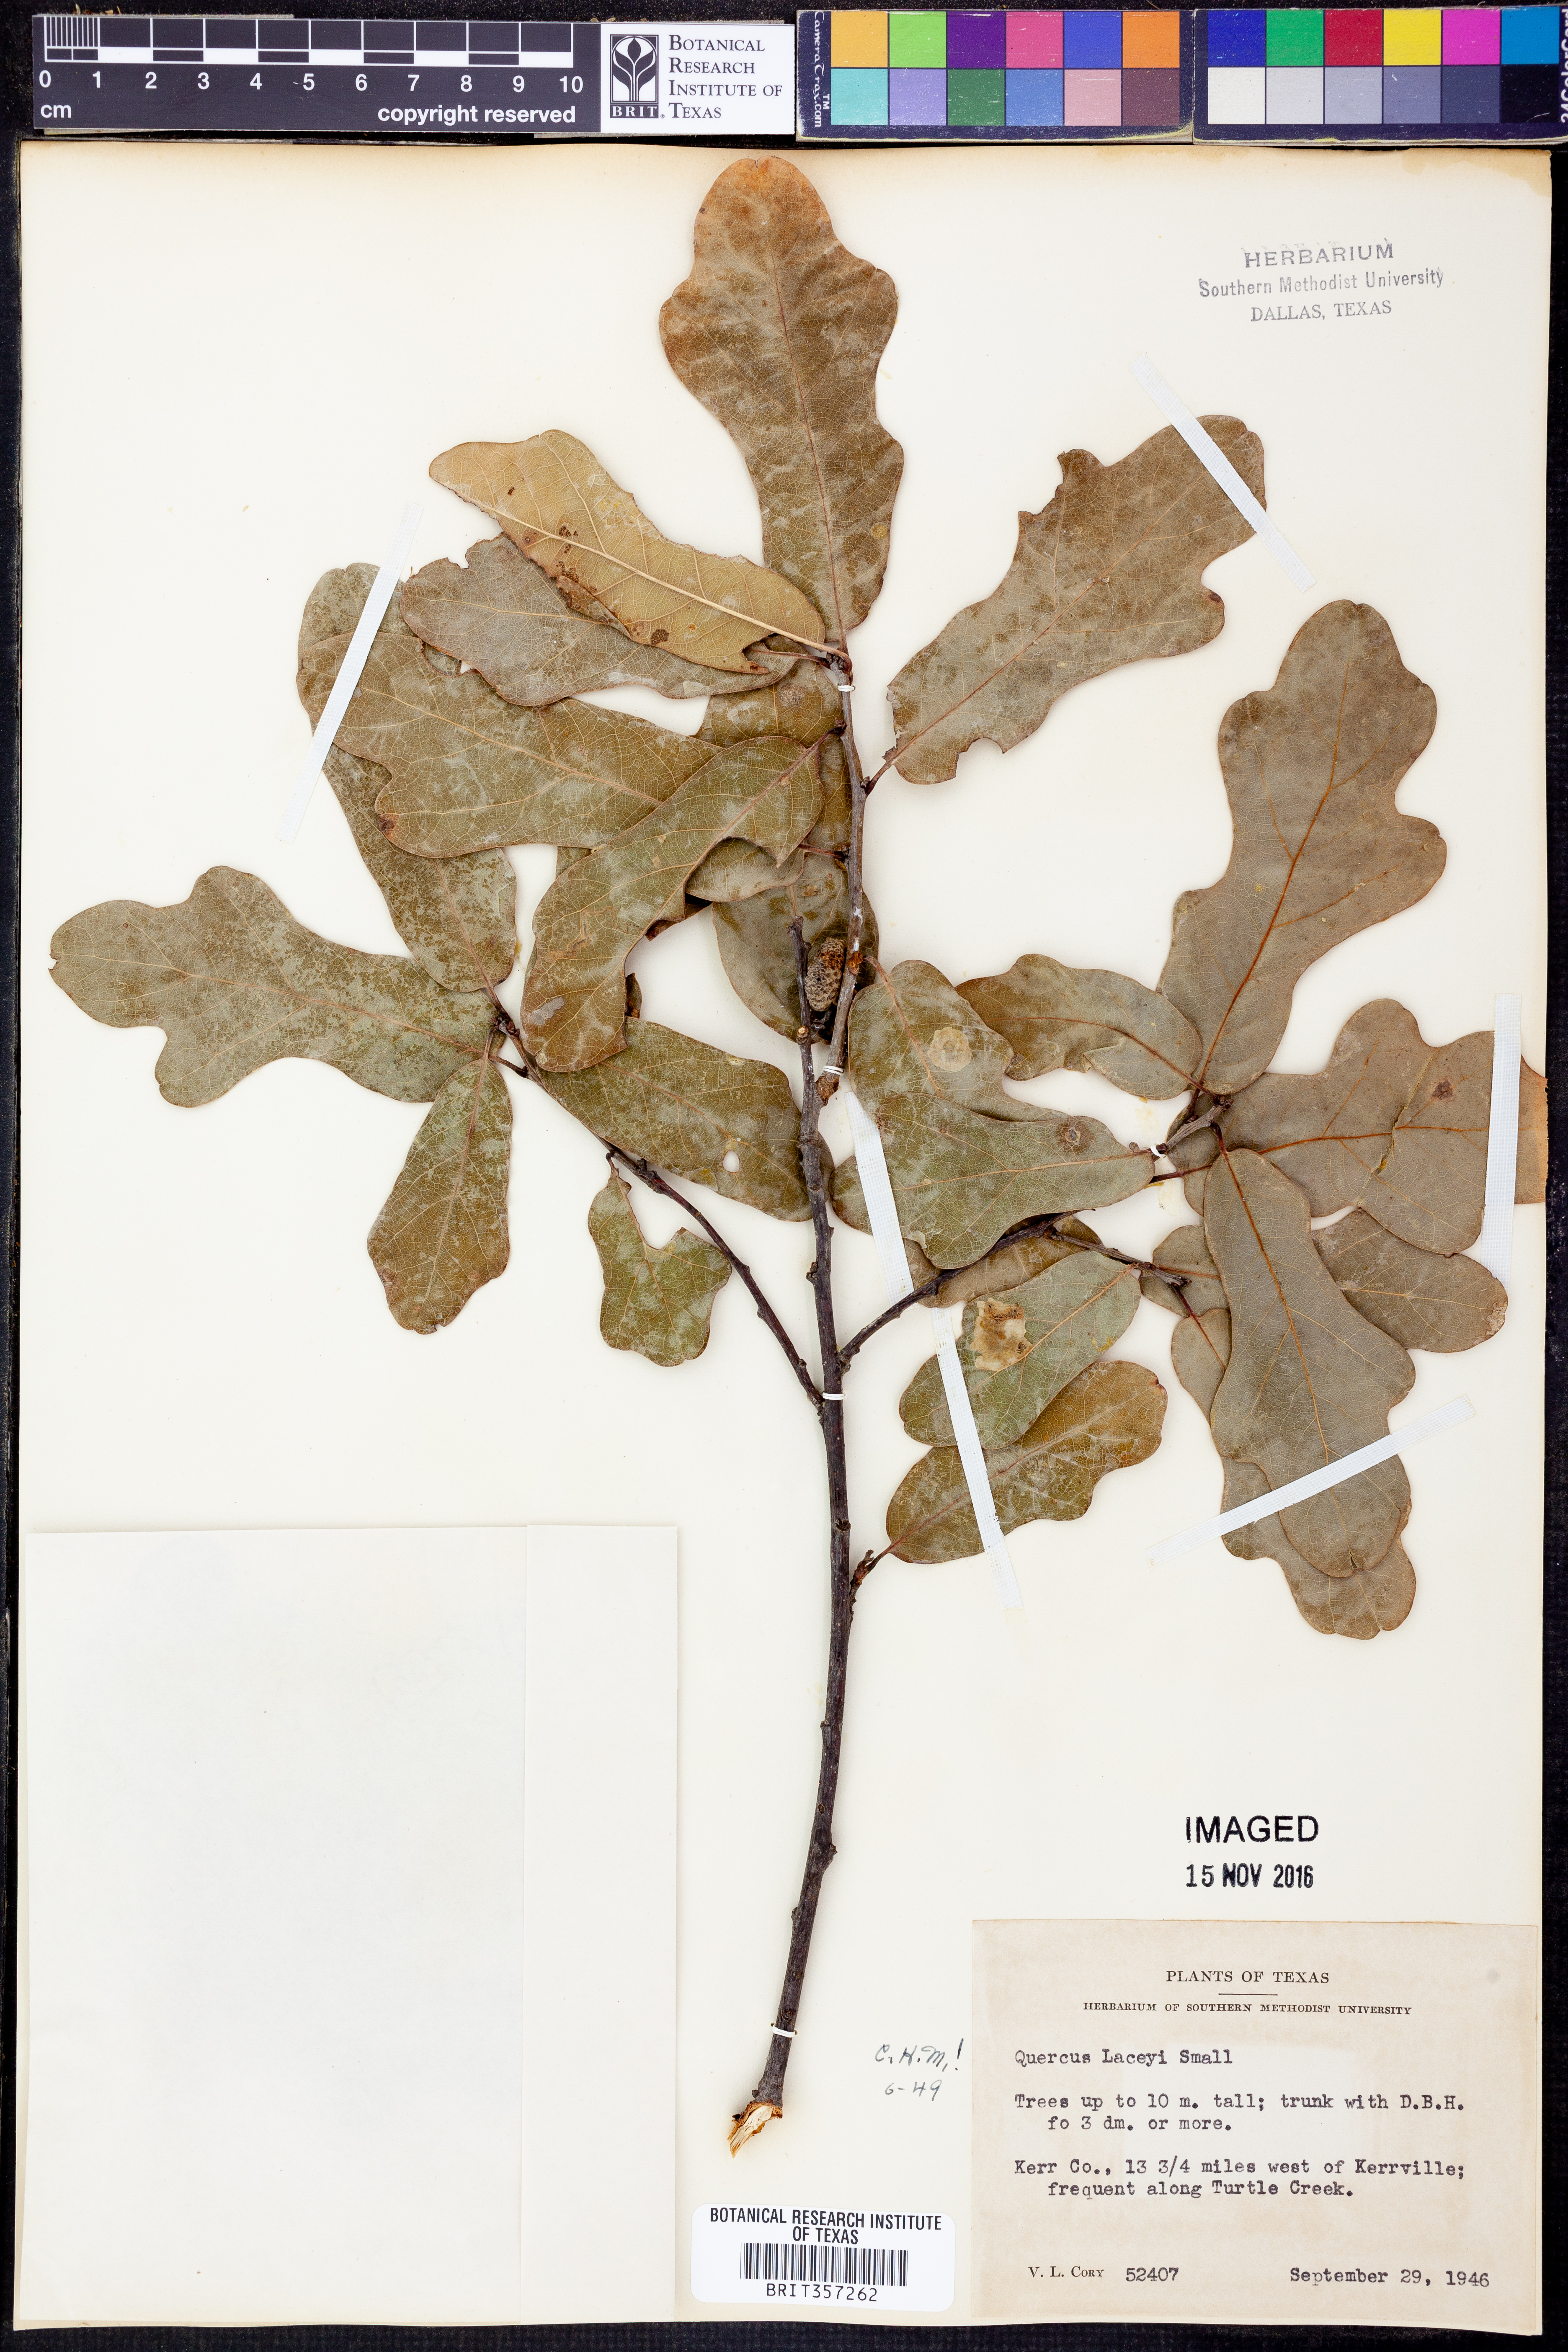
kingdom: Plantae
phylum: Tracheophyta
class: Magnoliopsida
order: Fagales
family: Fagaceae
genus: Quercus
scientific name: Quercus laceyi
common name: Lacey oak
